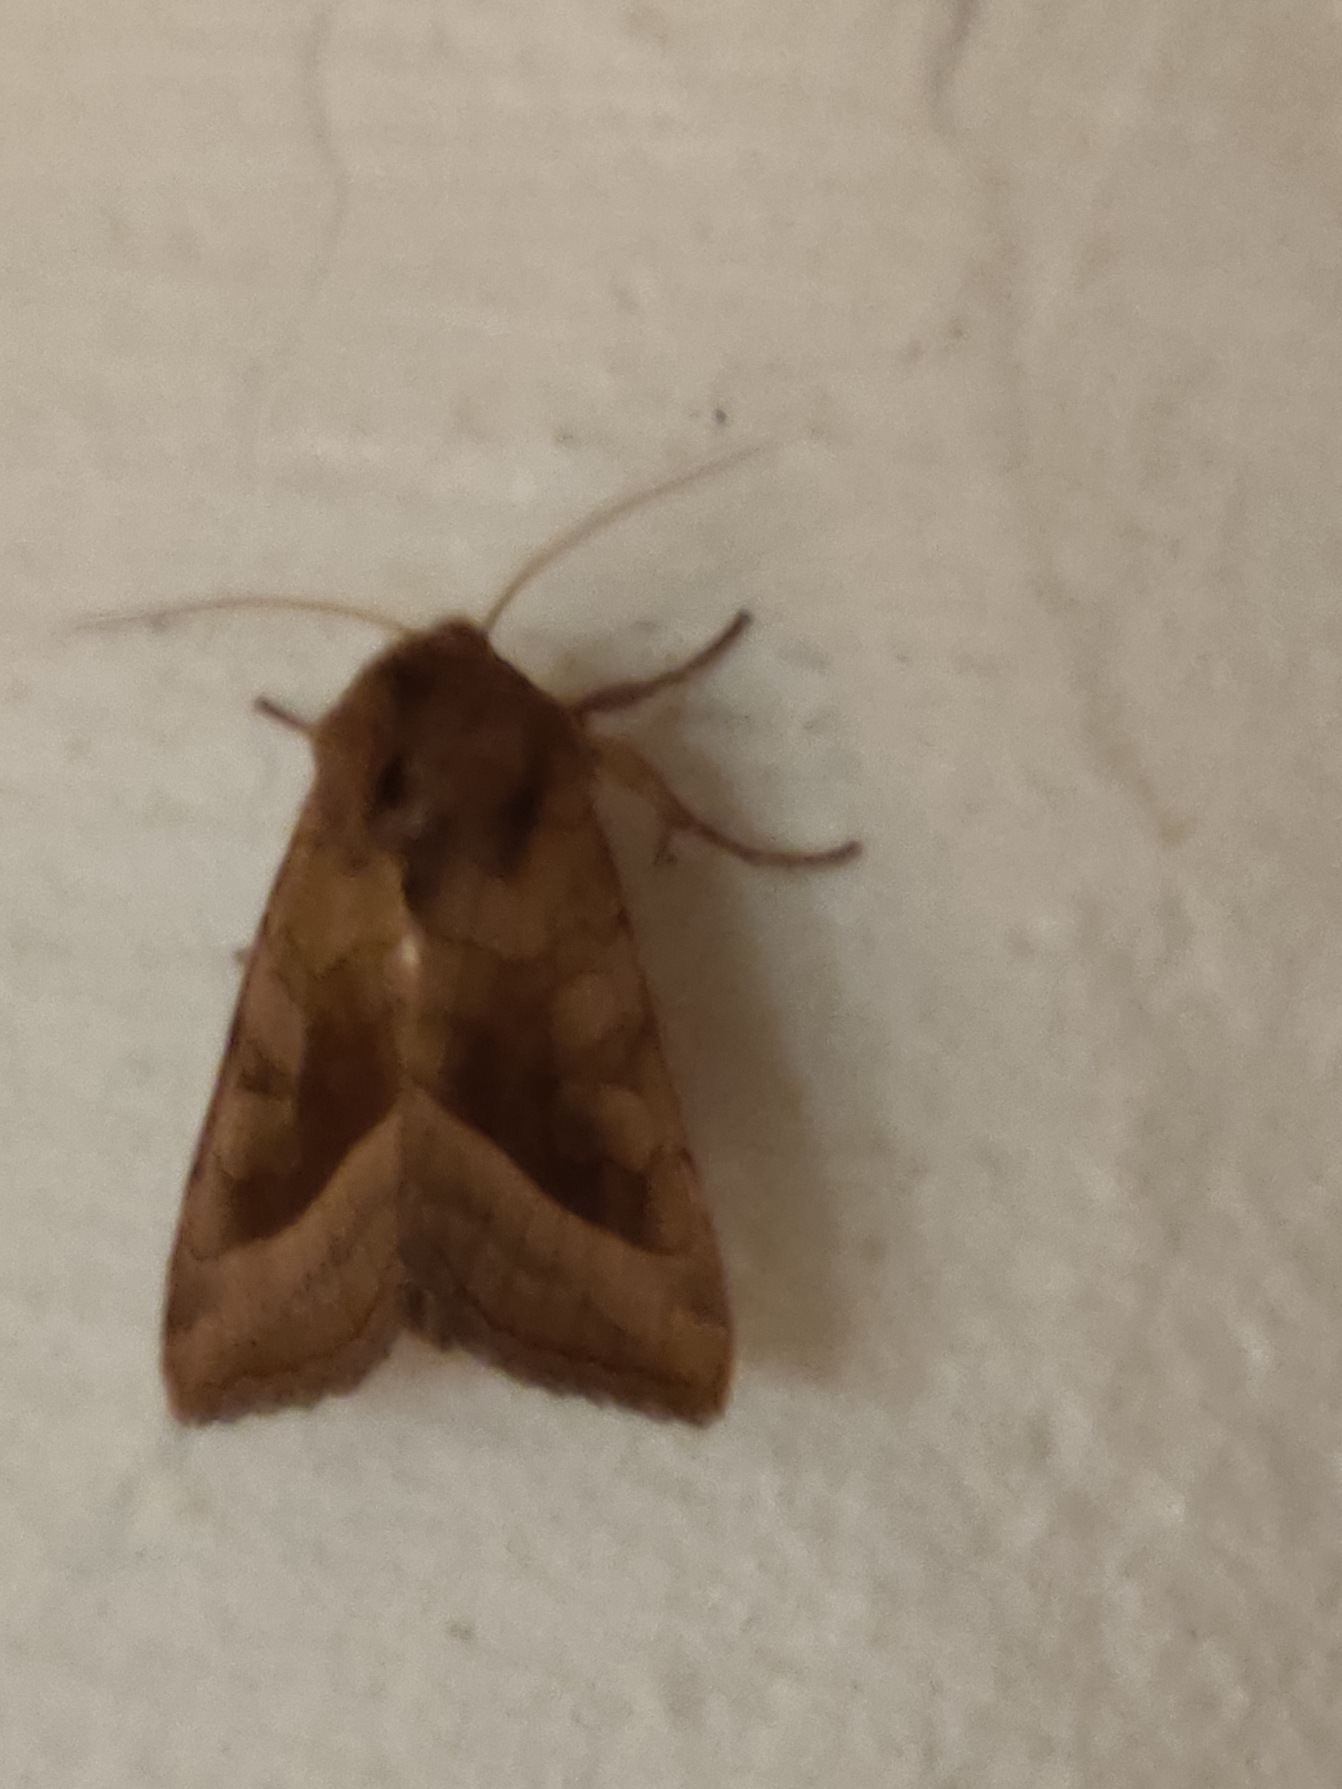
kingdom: Animalia
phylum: Arthropoda
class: Insecta
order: Lepidoptera
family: Noctuidae
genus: Hydraecia
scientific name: Hydraecia micacea
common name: Kartoffelborer
